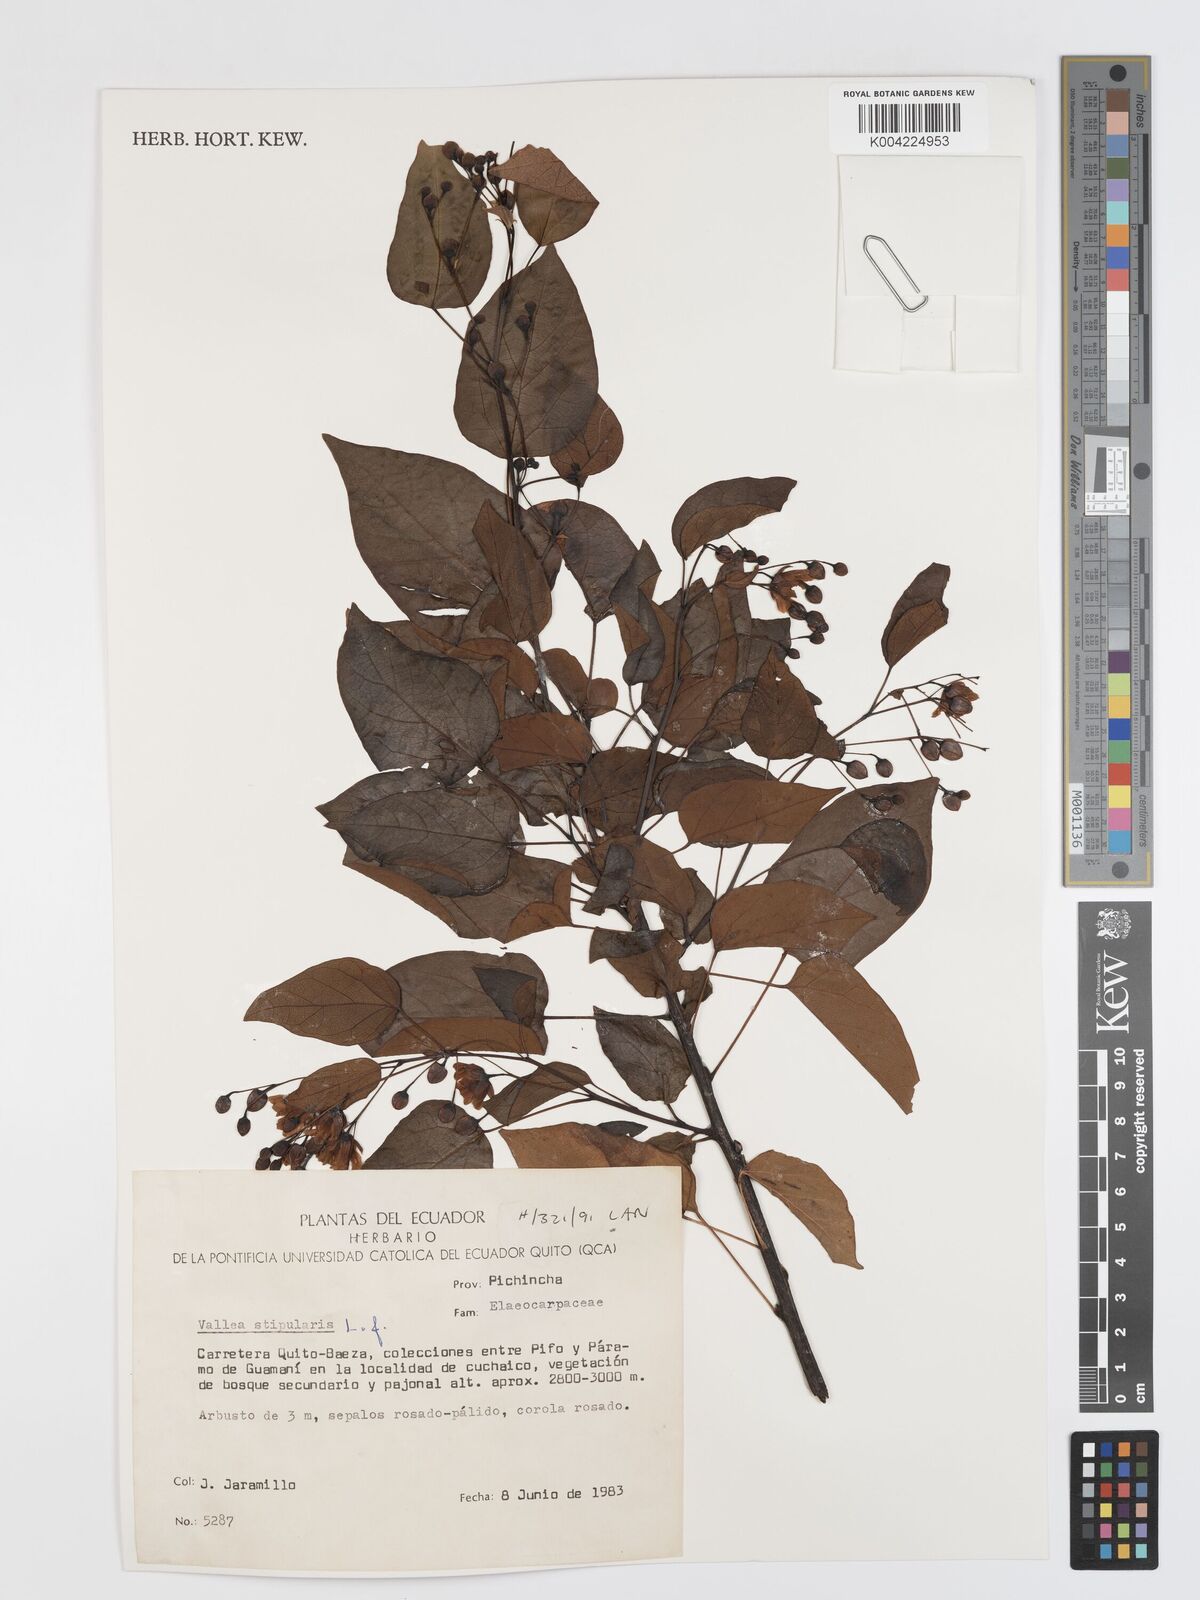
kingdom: Plantae
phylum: Tracheophyta
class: Magnoliopsida
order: Oxalidales
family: Elaeocarpaceae
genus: Vallea
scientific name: Vallea stipularis
